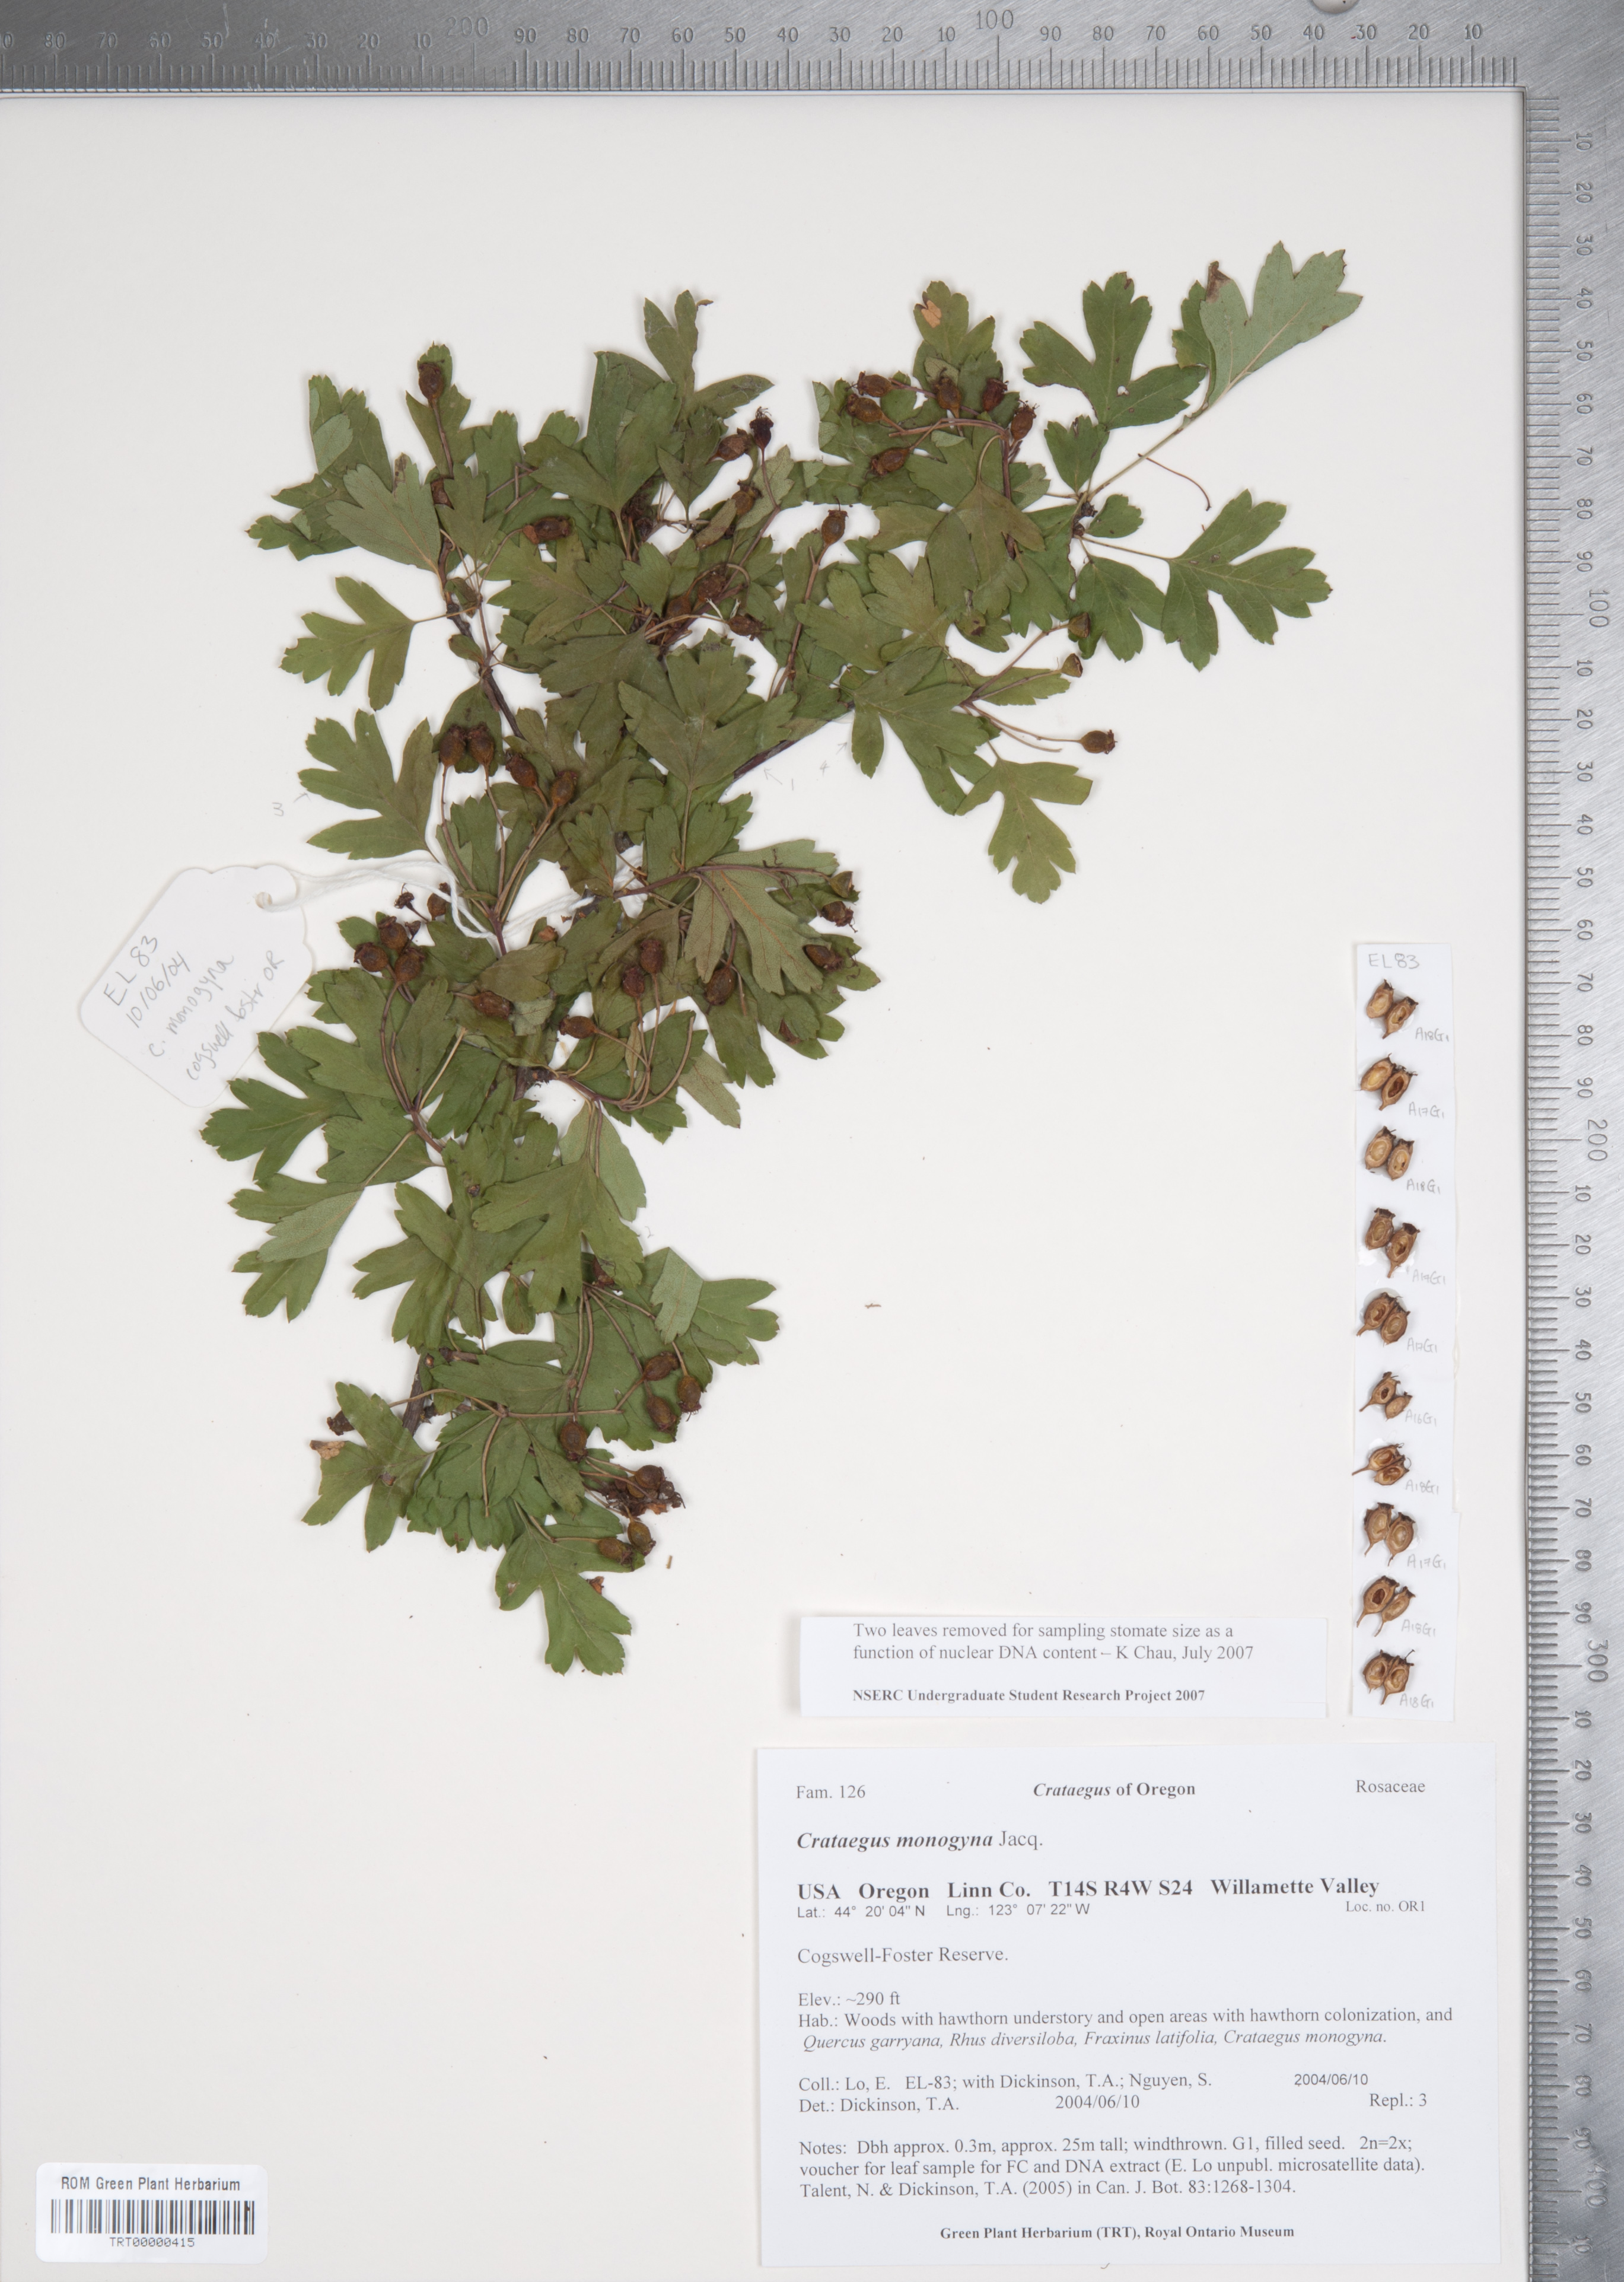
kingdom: Plantae
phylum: Tracheophyta
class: Magnoliopsida
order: Rosales
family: Rosaceae
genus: Crataegus
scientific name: Crataegus monogyna
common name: Hawthorn
